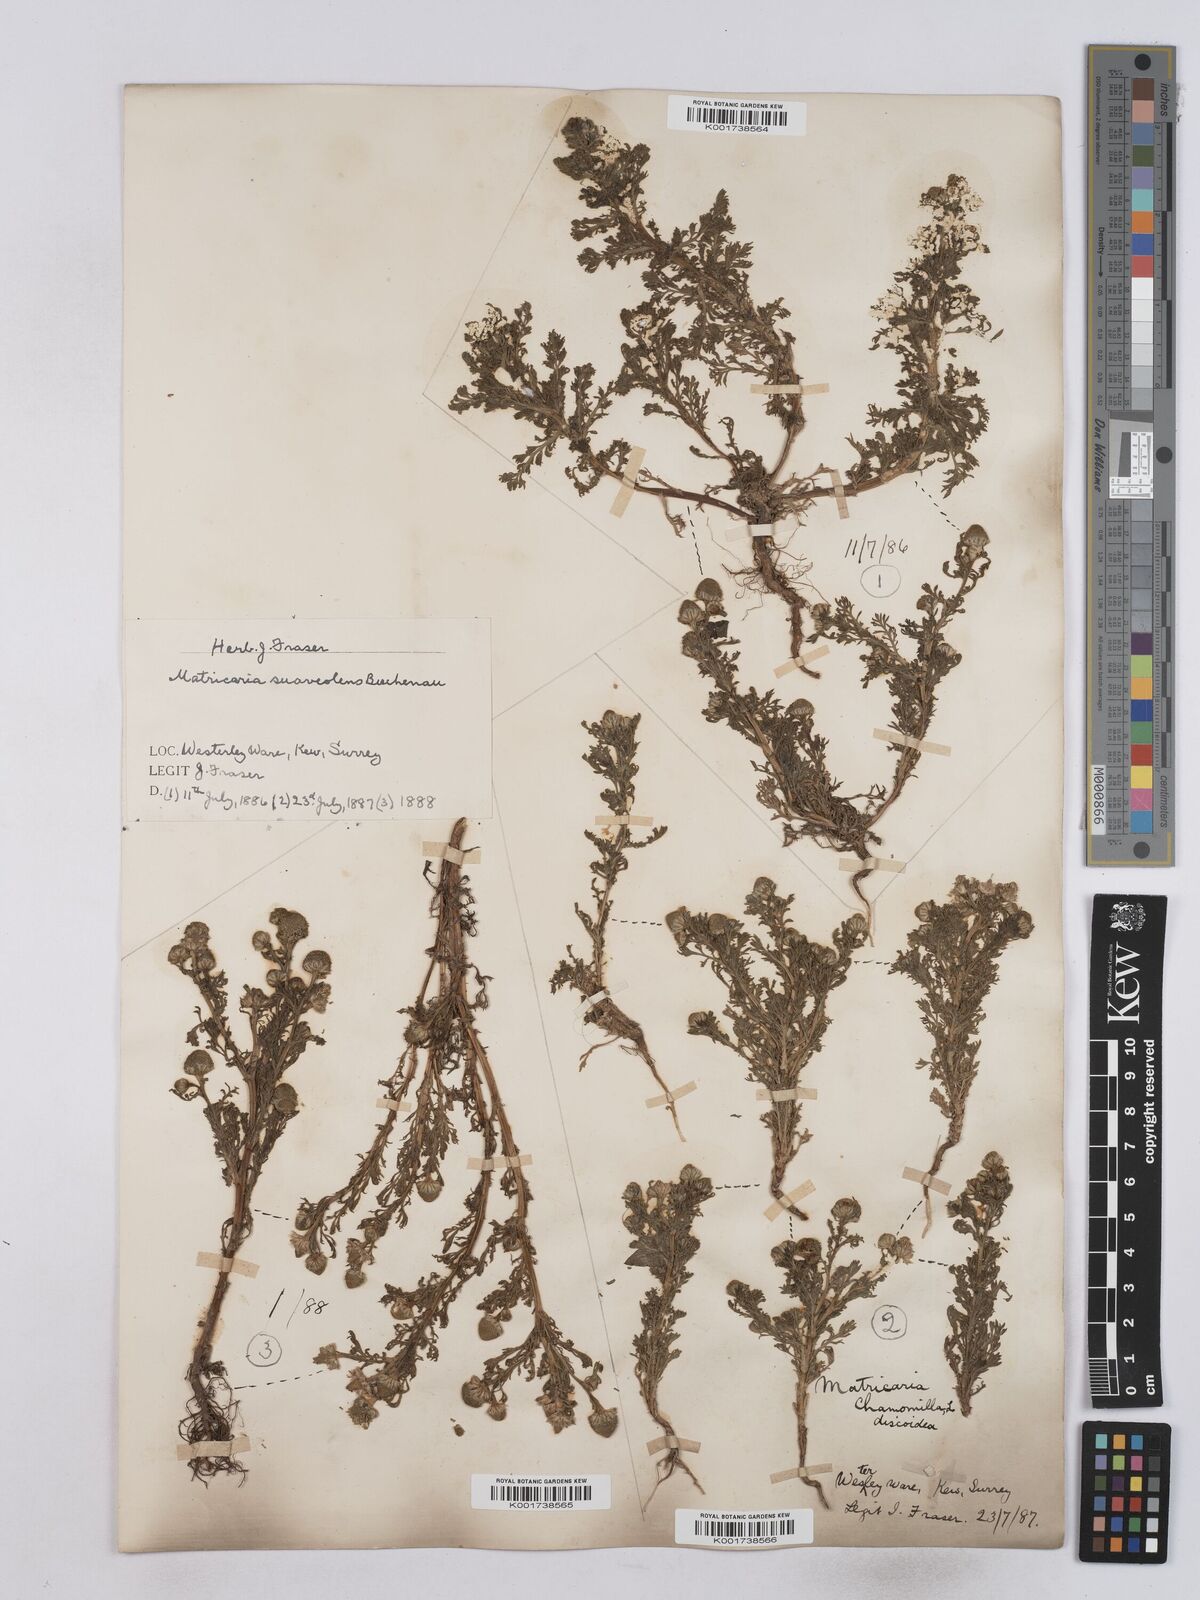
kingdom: Plantae
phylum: Tracheophyta
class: Magnoliopsida
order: Asterales
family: Asteraceae
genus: Matricaria
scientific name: Matricaria discoidea
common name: Disc mayweed
